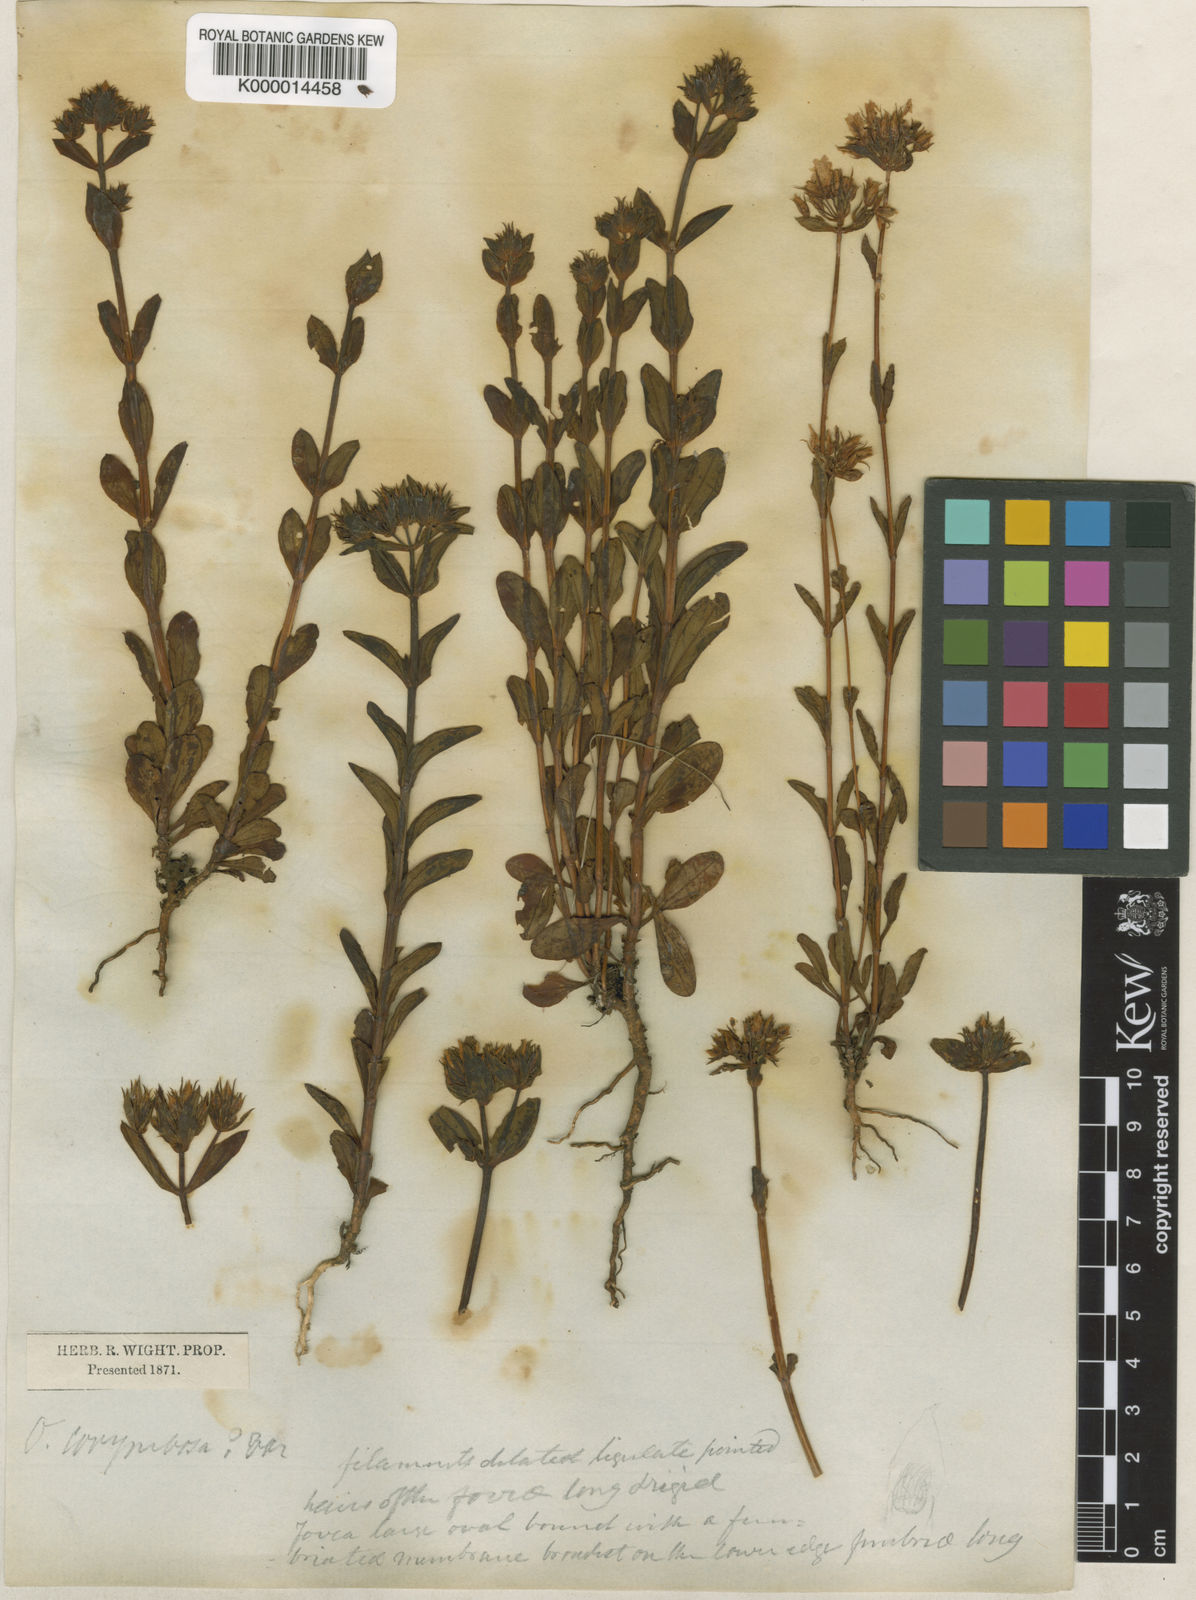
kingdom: Plantae
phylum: Tracheophyta
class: Magnoliopsida
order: Gentianales
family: Gentianaceae
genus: Swertia
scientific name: Swertia
